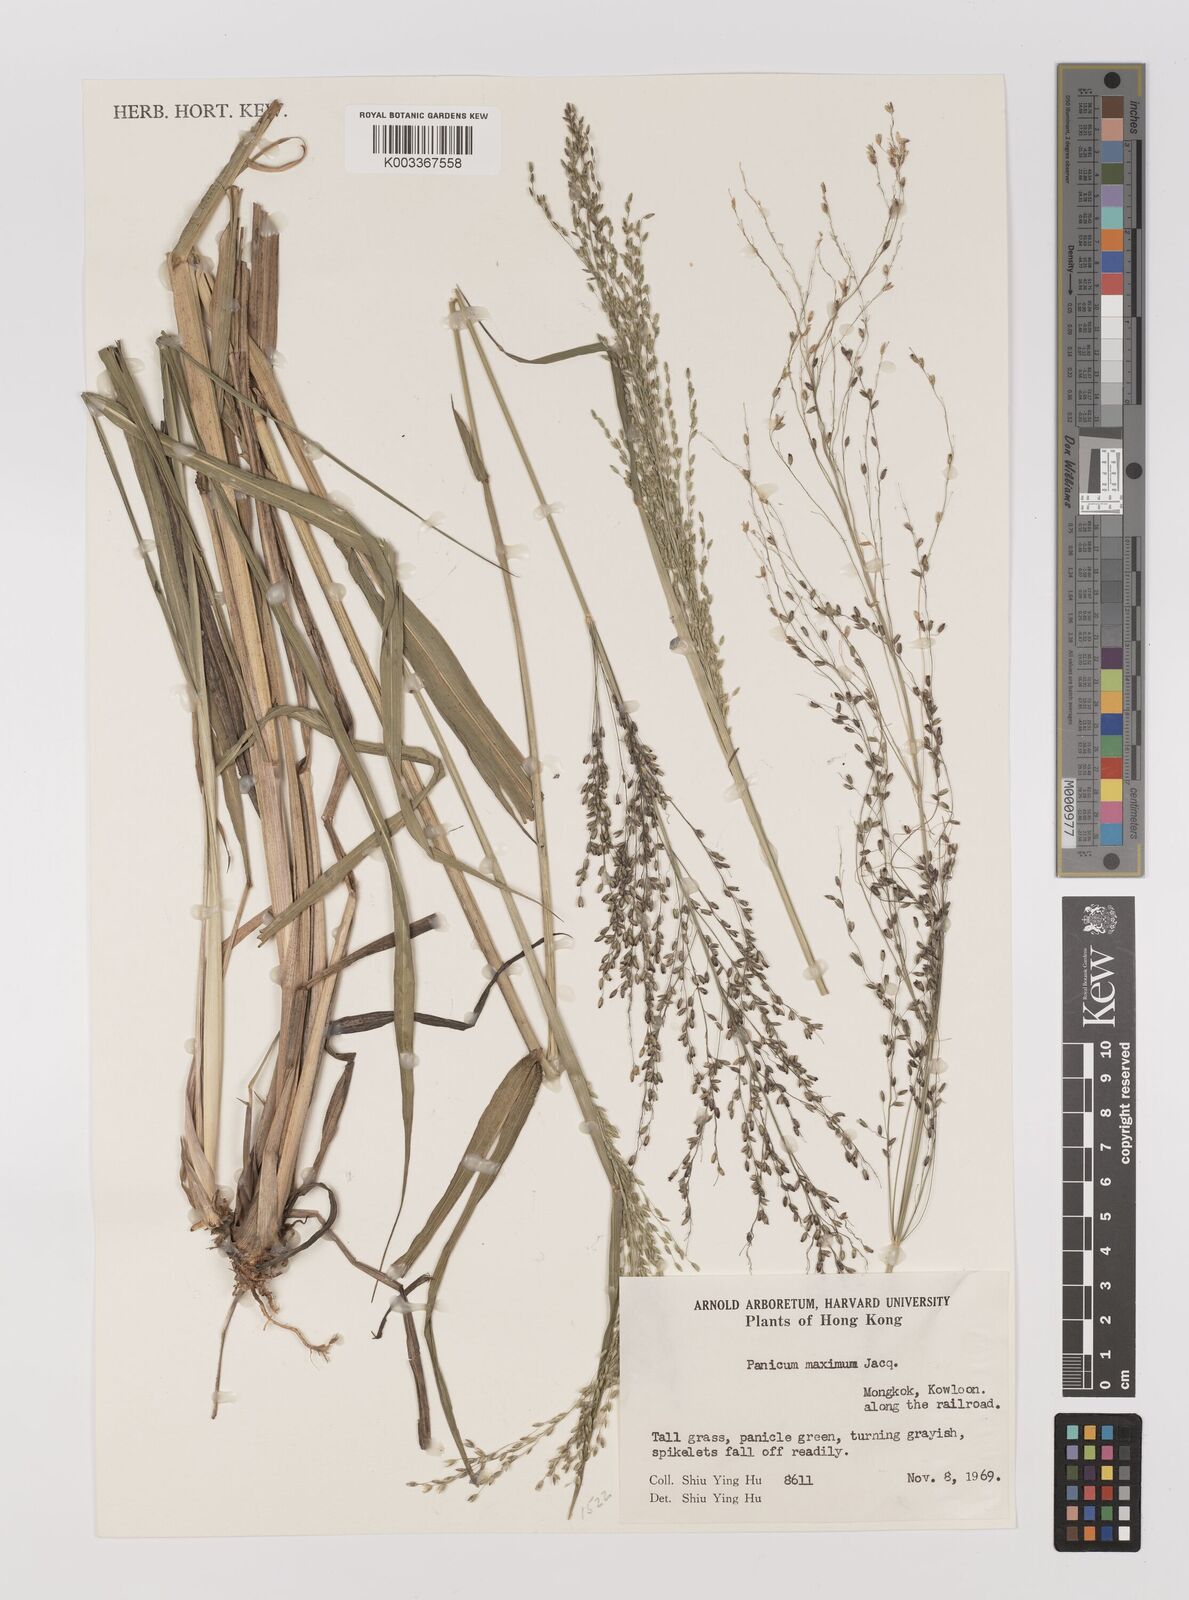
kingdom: Plantae
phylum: Tracheophyta
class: Liliopsida
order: Poales
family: Poaceae
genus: Megathyrsus
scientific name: Megathyrsus maximus
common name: Guineagrass
